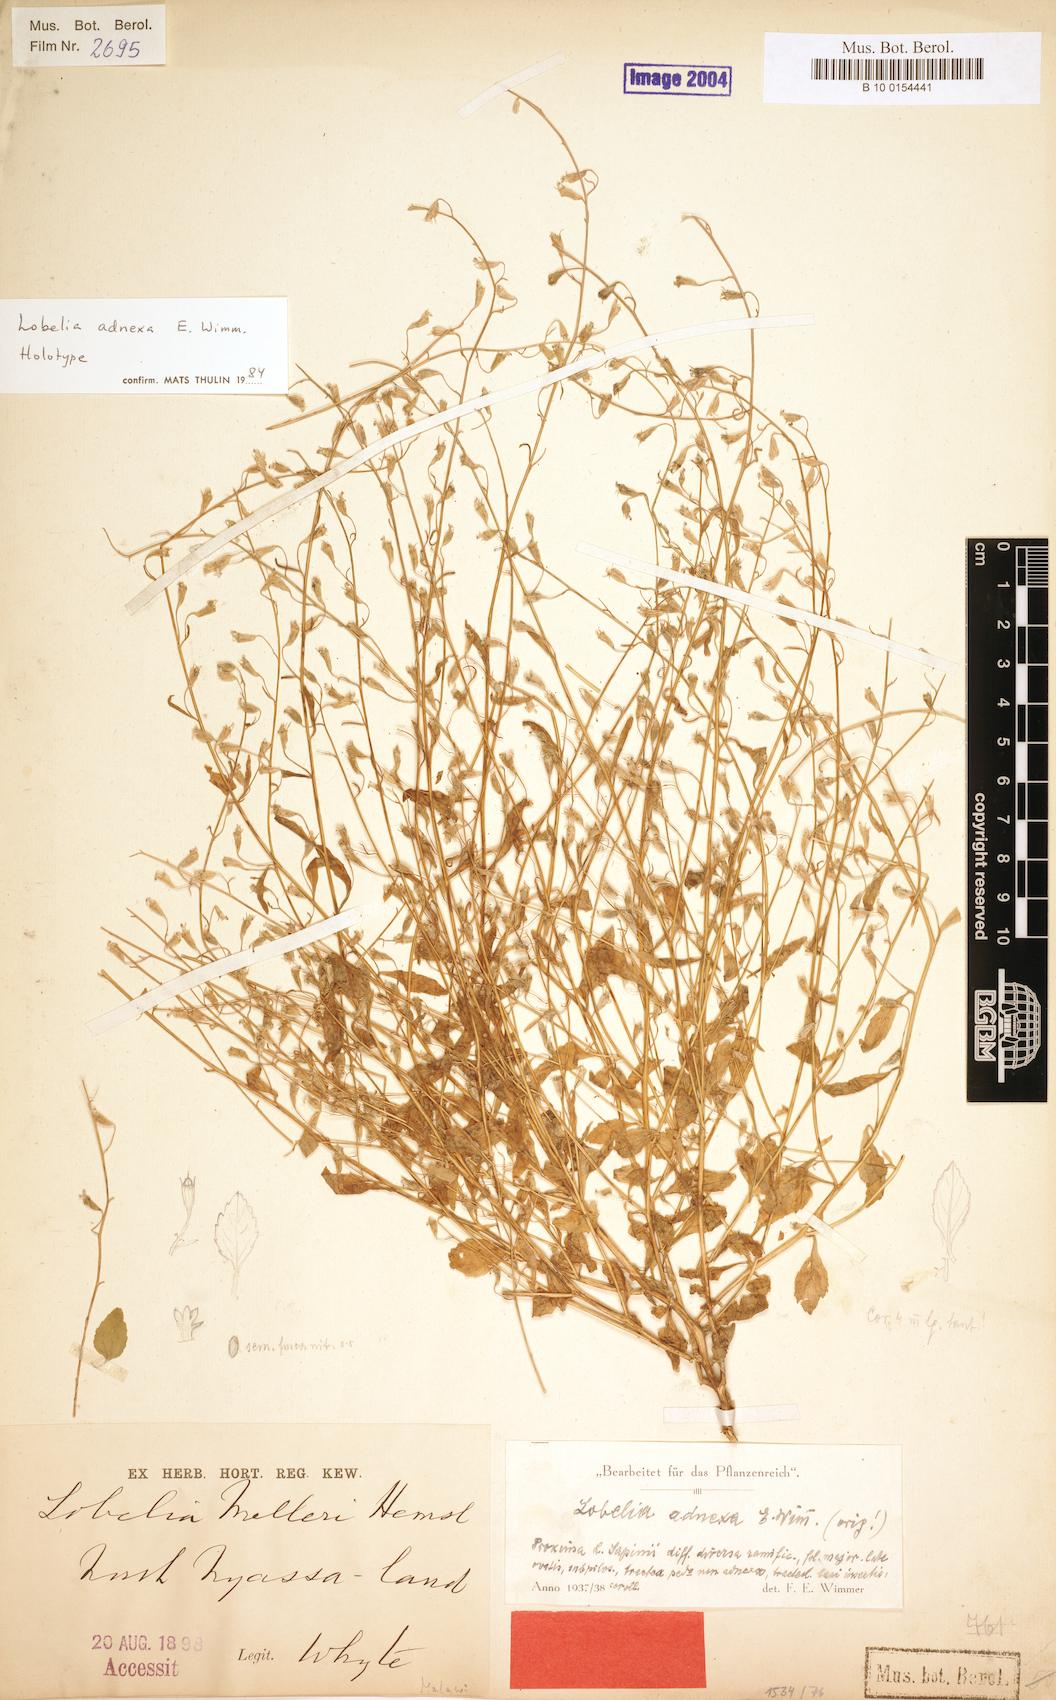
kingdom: Plantae
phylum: Tracheophyta
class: Magnoliopsida
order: Asterales
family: Campanulaceae
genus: Lobelia
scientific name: Lobelia adnexa
